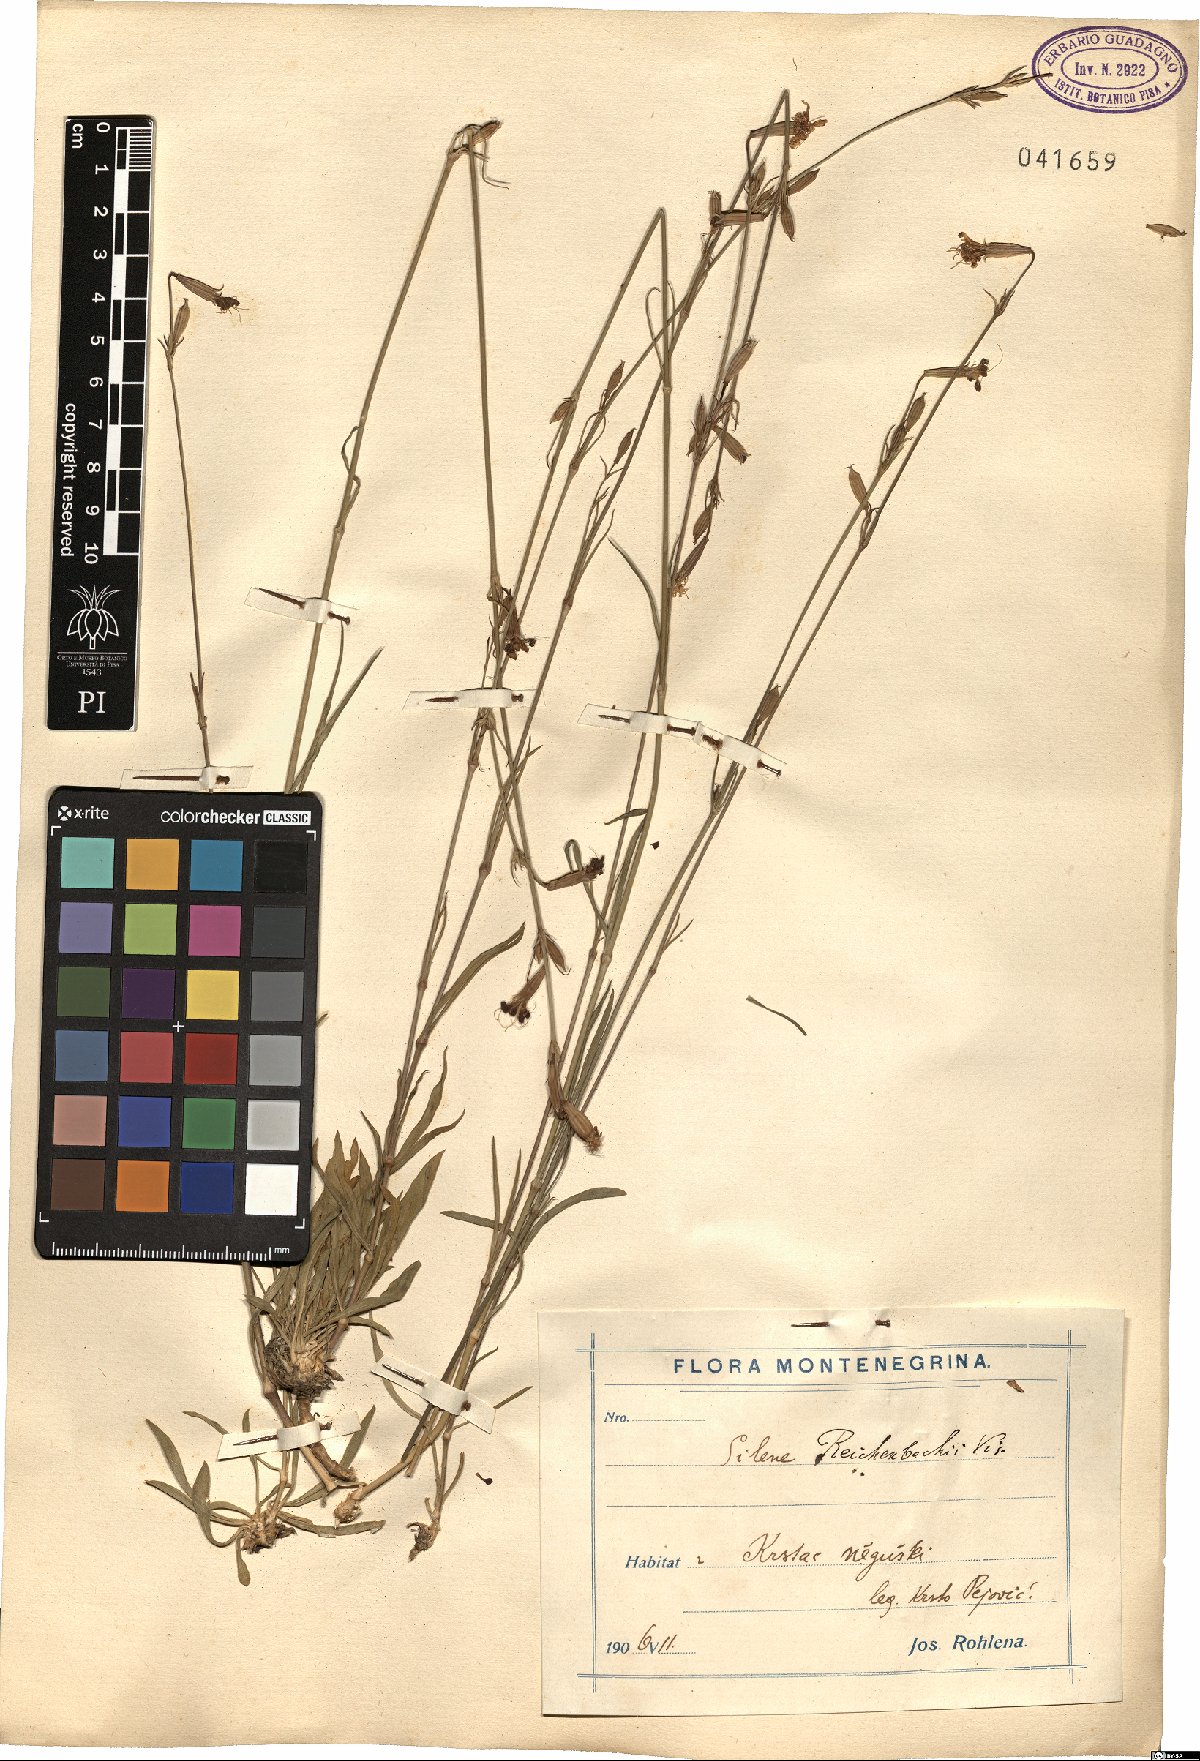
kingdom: Plantae
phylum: Tracheophyta
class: Magnoliopsida
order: Caryophyllales
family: Caryophyllaceae
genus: Silene
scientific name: Silene reichenbachii
